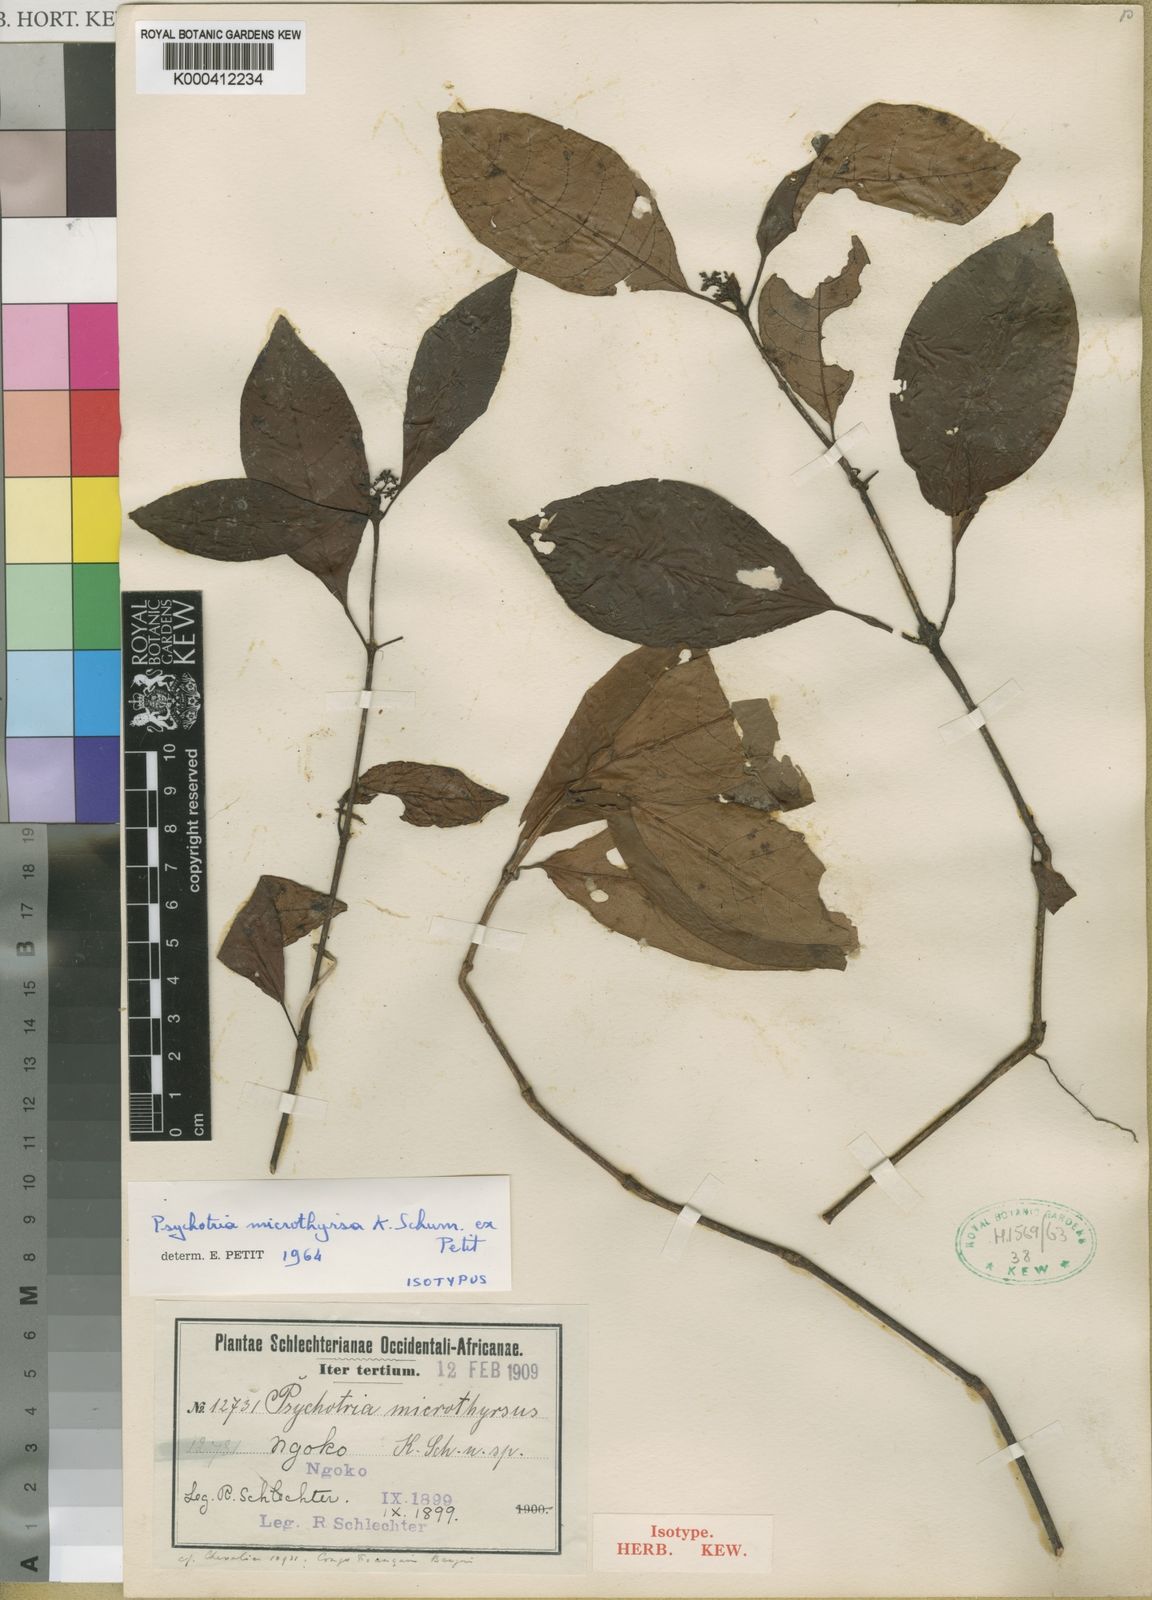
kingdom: Plantae
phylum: Tracheophyta
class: Magnoliopsida
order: Gentianales
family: Rubiaceae
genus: Psychotria
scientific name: Psychotria microthyrsa
